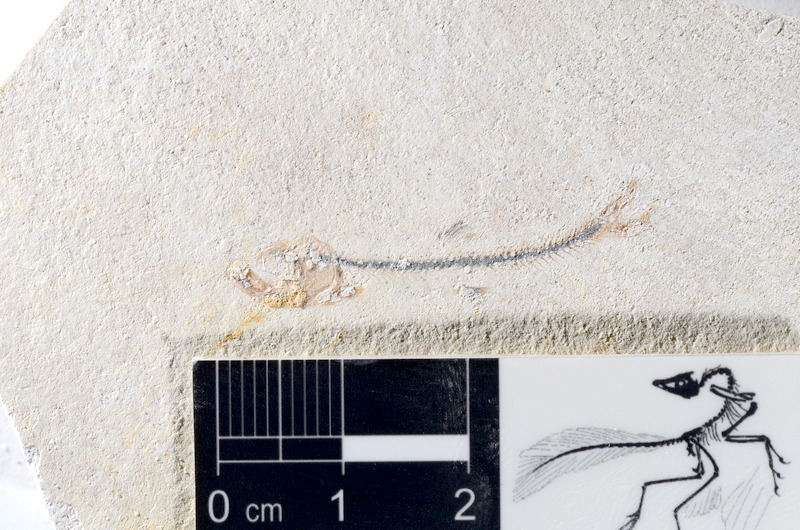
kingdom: Animalia
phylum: Chordata
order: Salmoniformes
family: Orthogonikleithridae
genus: Orthogonikleithrus
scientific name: Orthogonikleithrus hoelli
